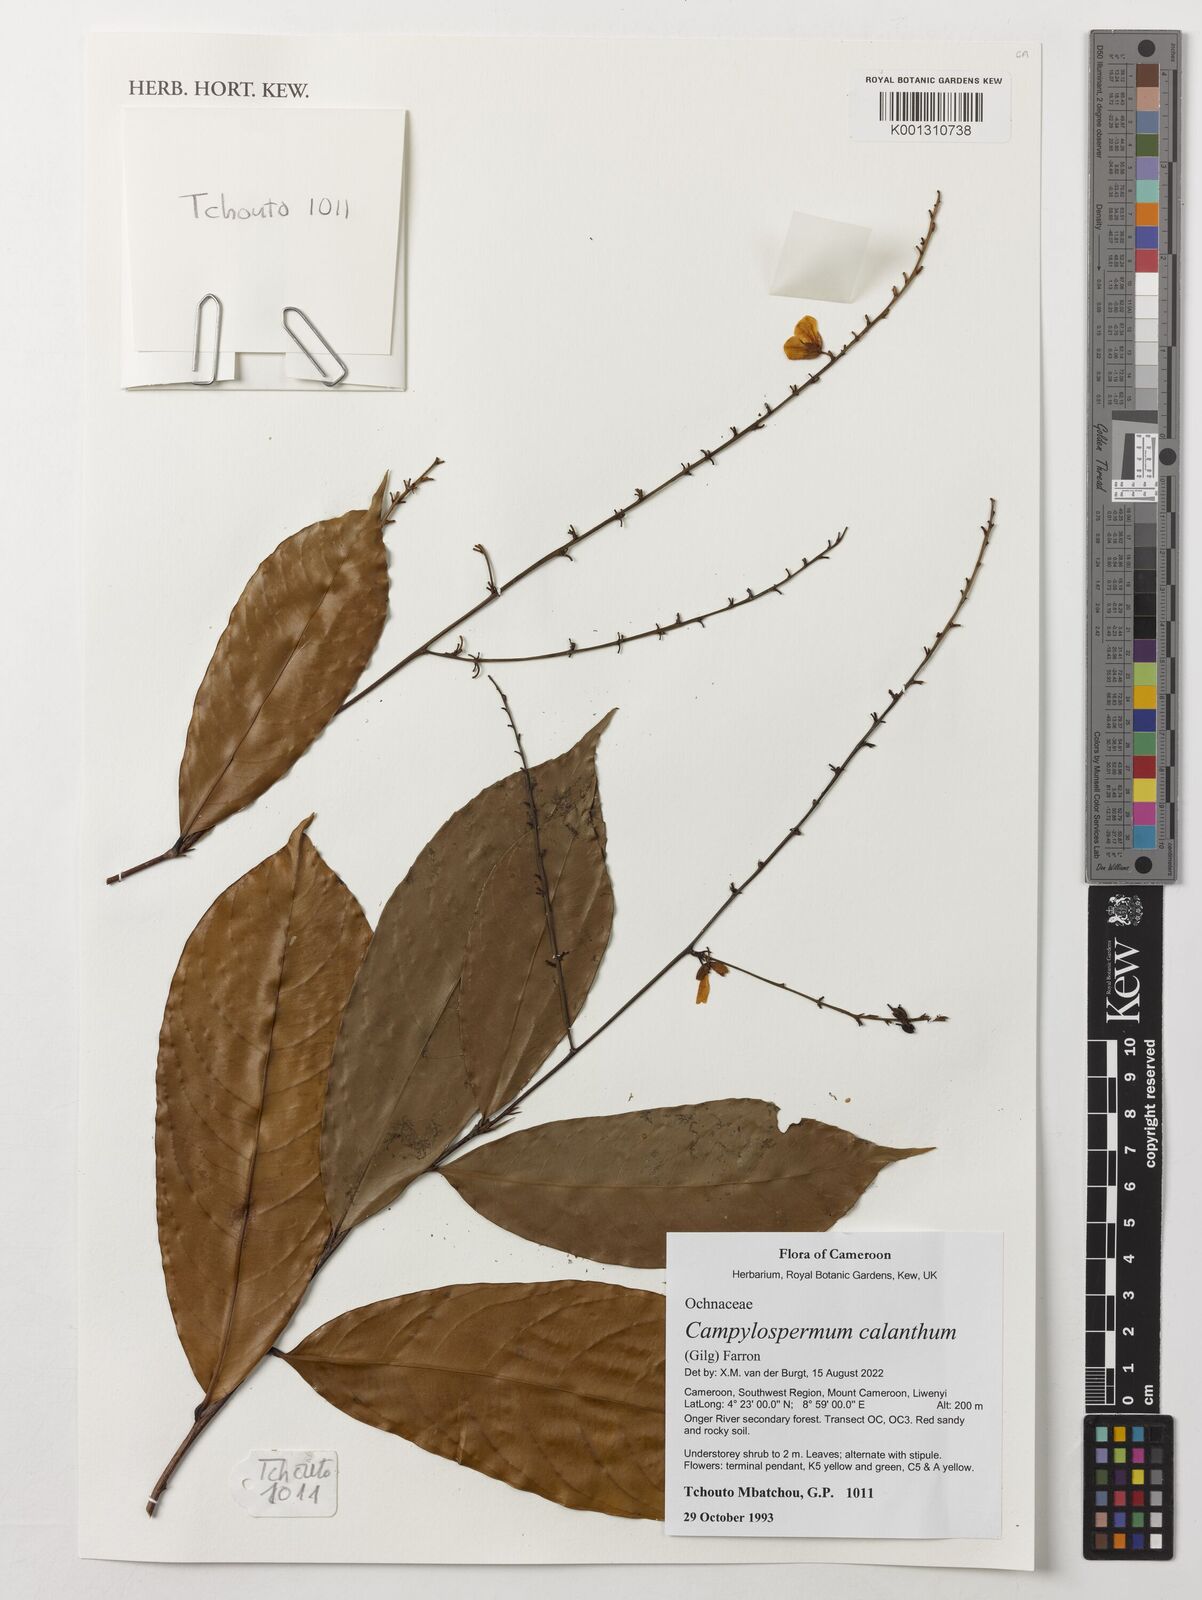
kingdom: Plantae
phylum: Tracheophyta
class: Magnoliopsida
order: Malpighiales
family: Ochnaceae
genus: Campylospermum
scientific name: Campylospermum calanthum
